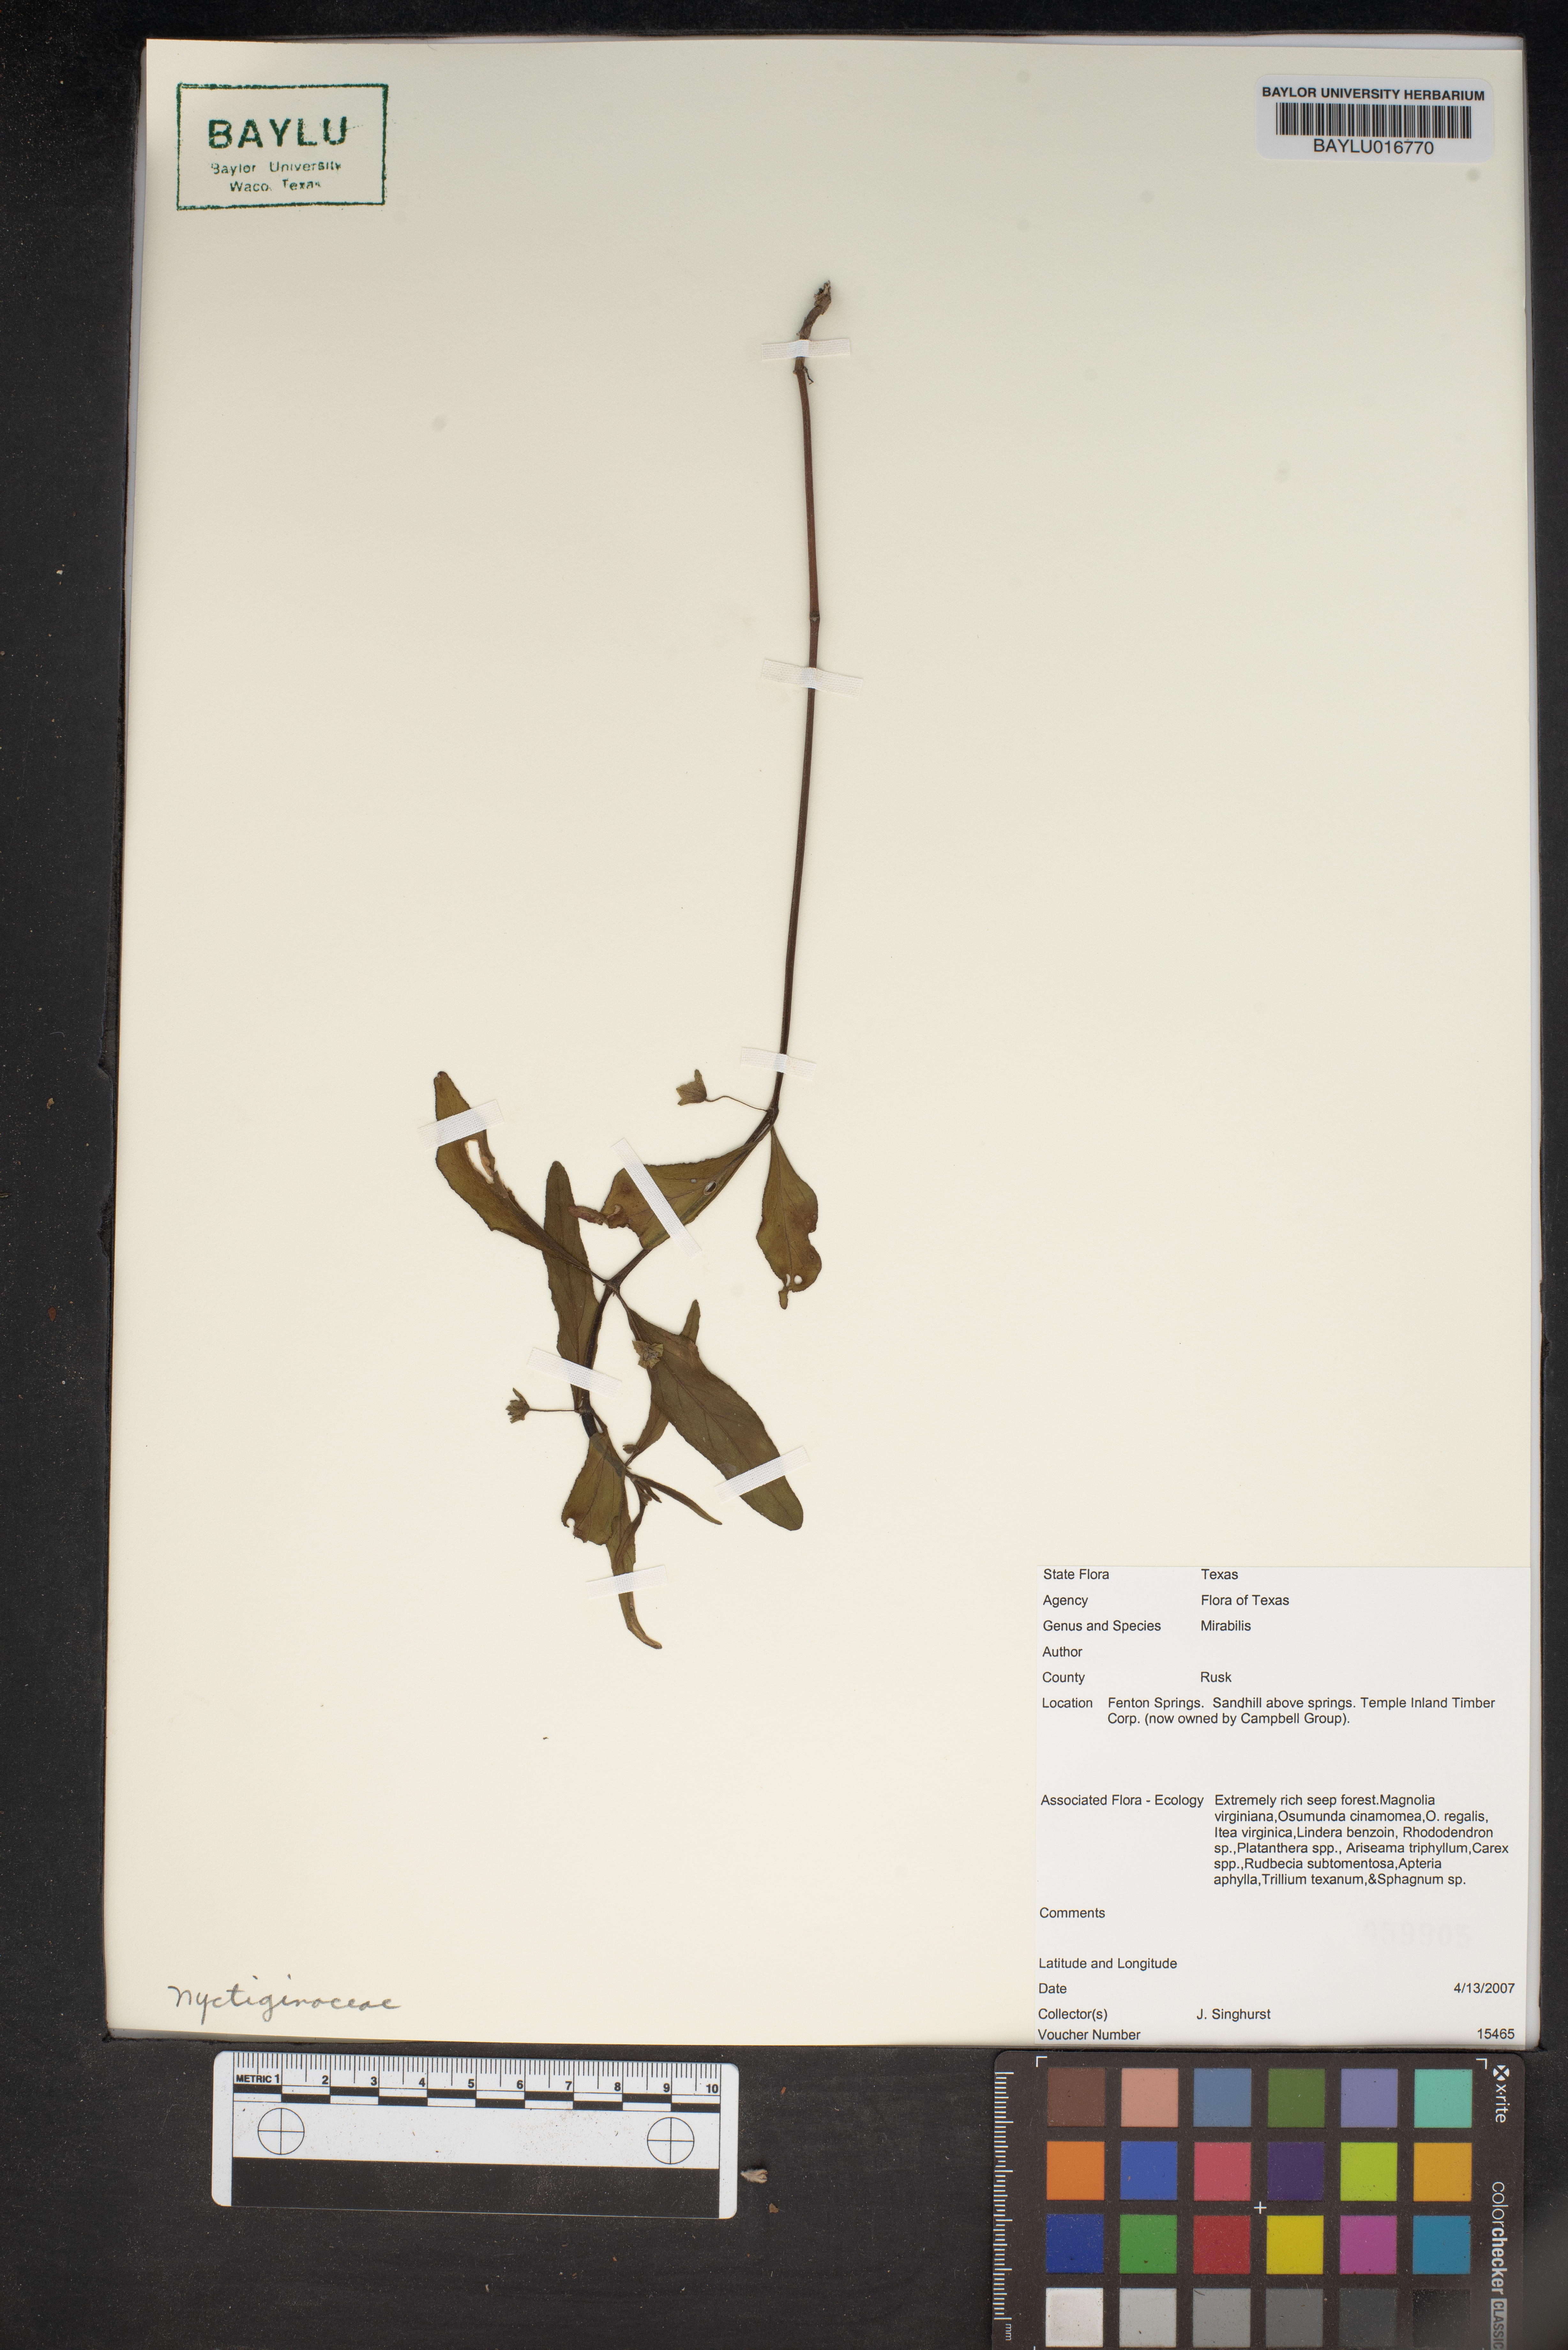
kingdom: Plantae
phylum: Tracheophyta
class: Magnoliopsida
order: Caryophyllales
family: Nyctaginaceae
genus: Mirabilis
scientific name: Mirabilis
